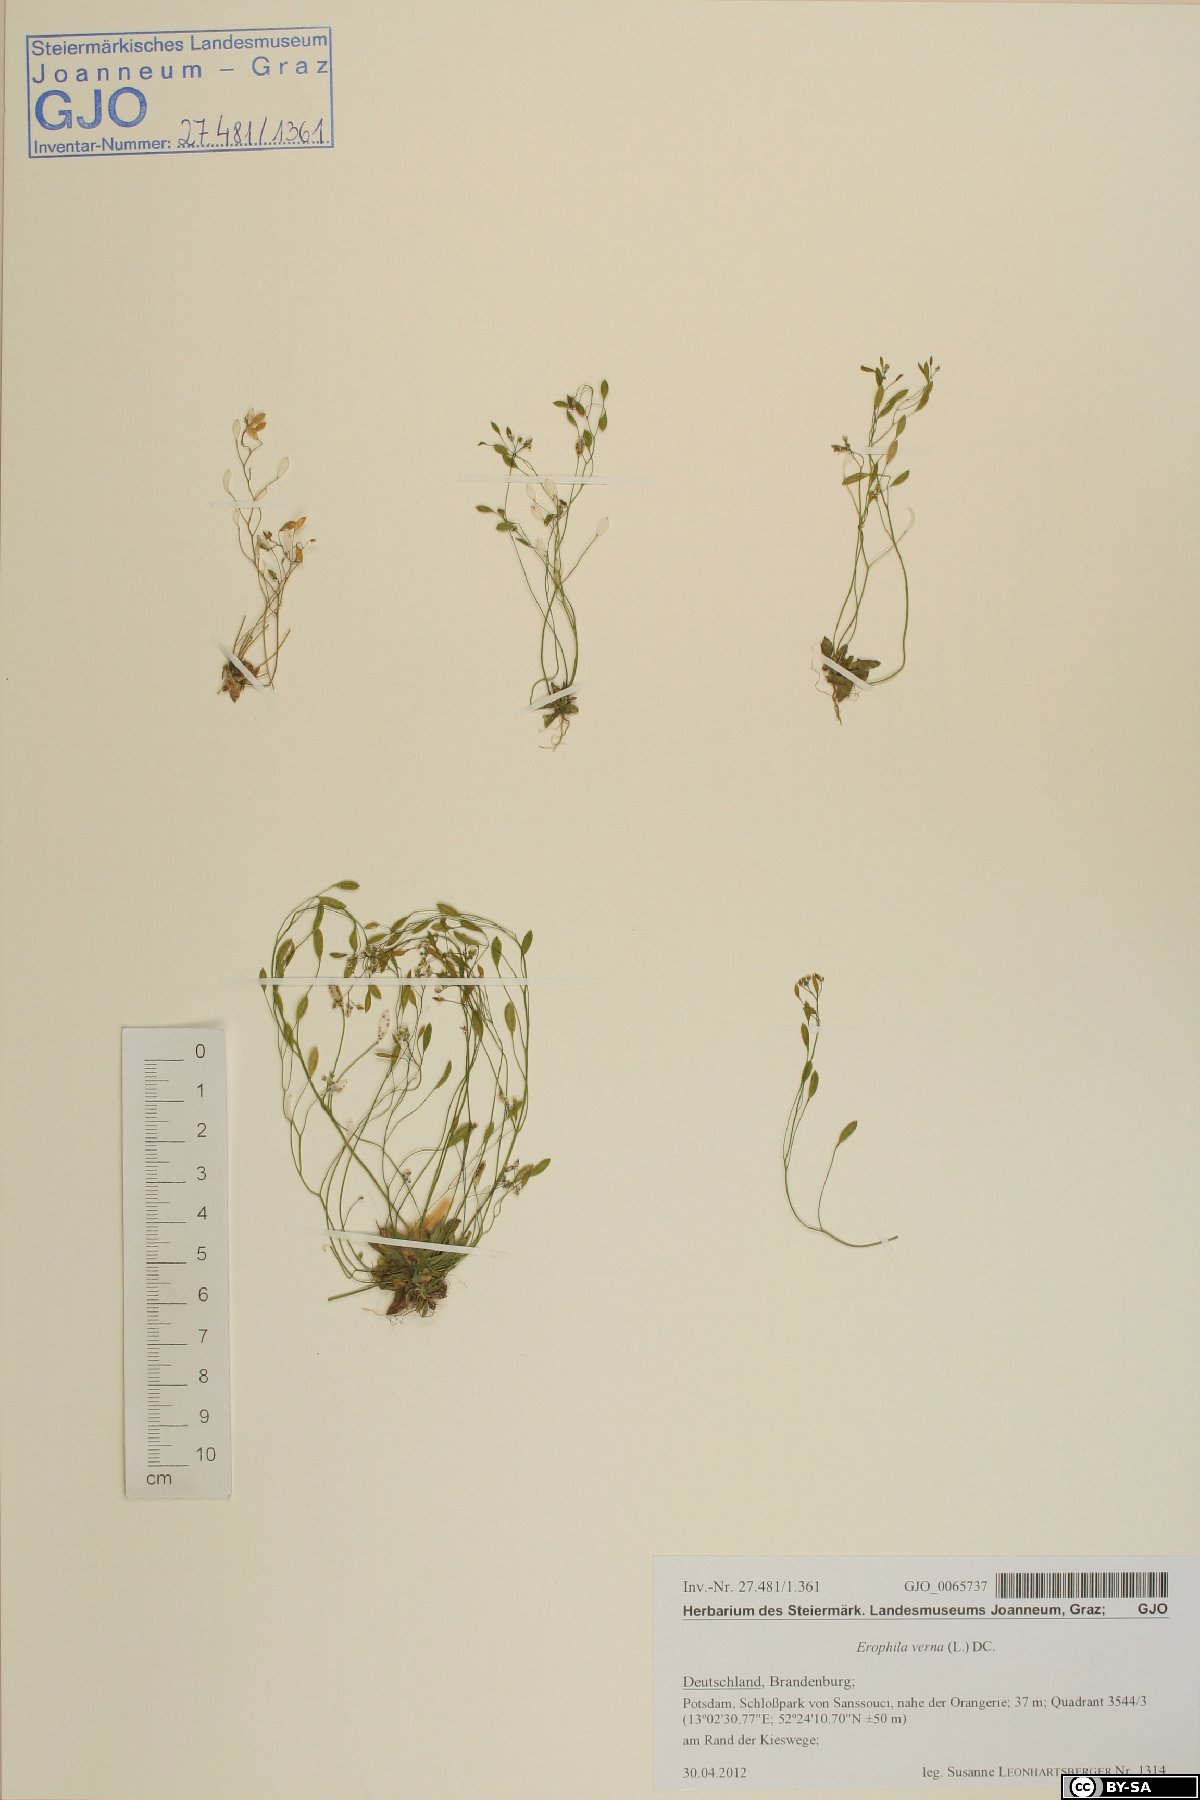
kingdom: Plantae
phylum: Tracheophyta
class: Magnoliopsida
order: Brassicales
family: Brassicaceae
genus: Draba
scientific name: Draba verna
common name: Spring draba
